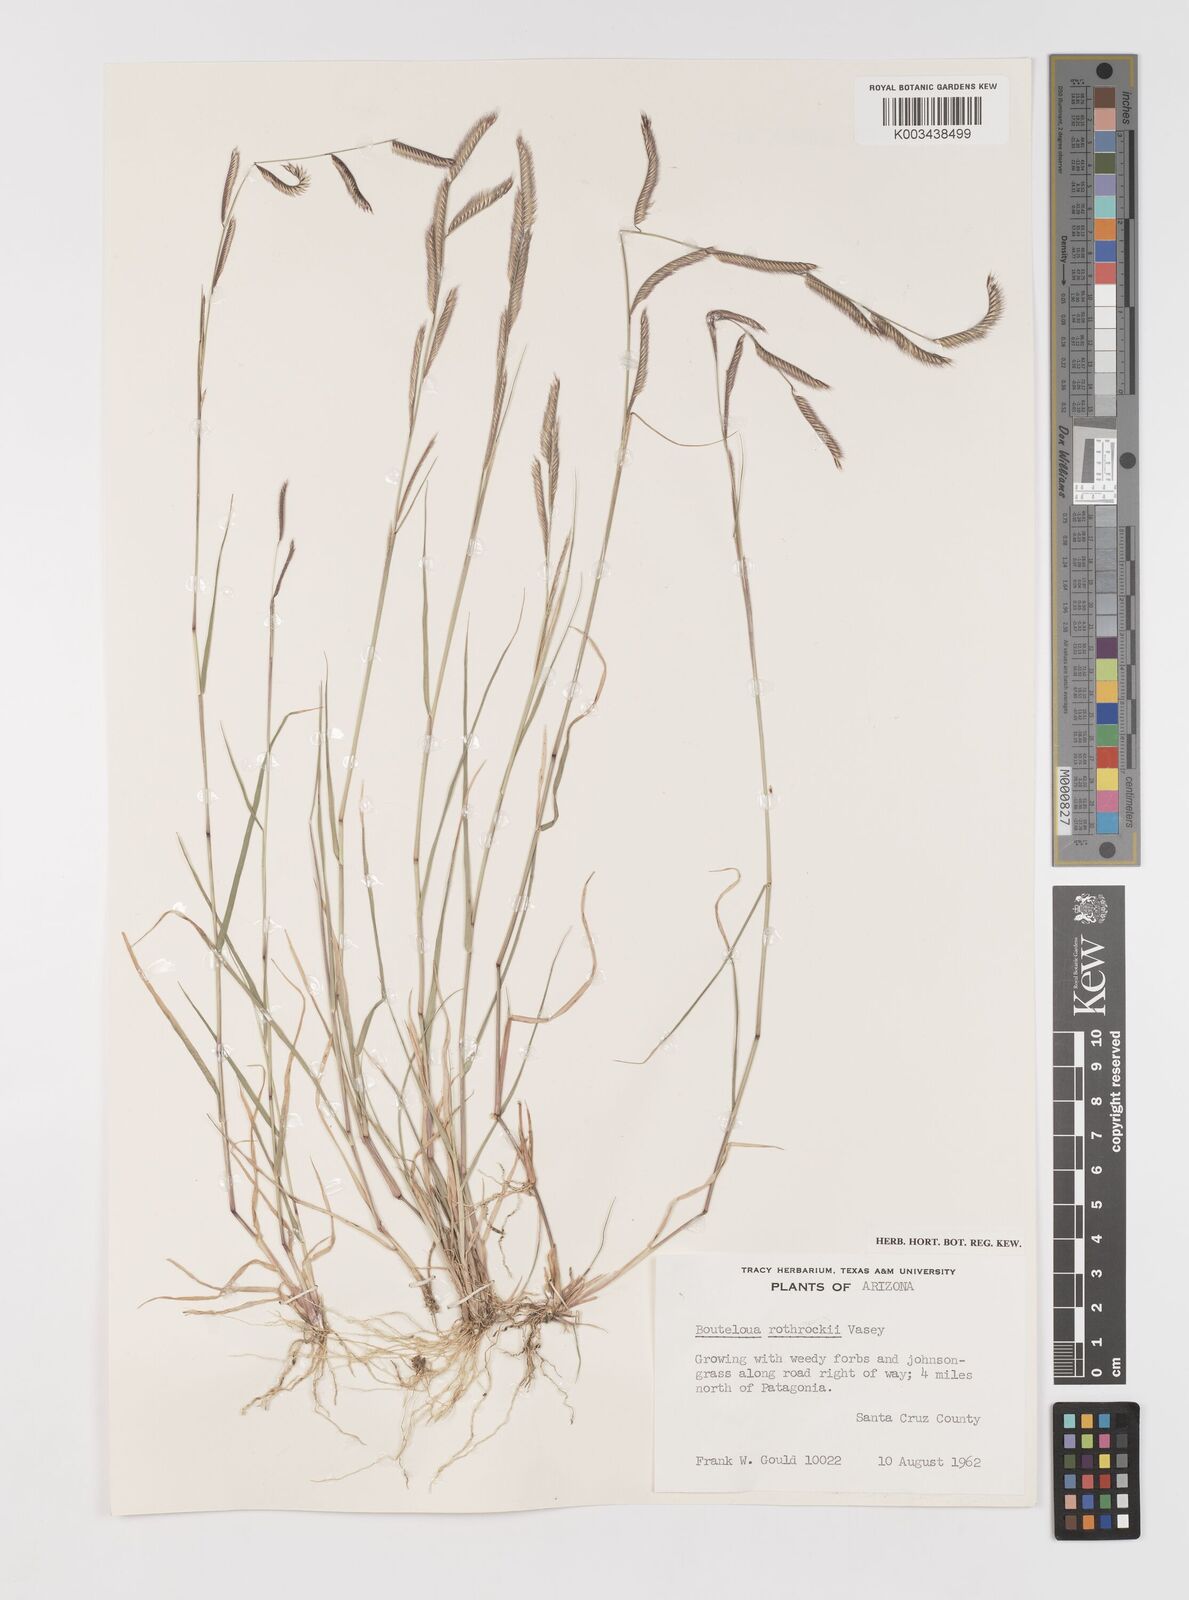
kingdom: Plantae
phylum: Tracheophyta
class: Liliopsida
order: Poales
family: Poaceae
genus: Bouteloua
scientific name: Bouteloua
